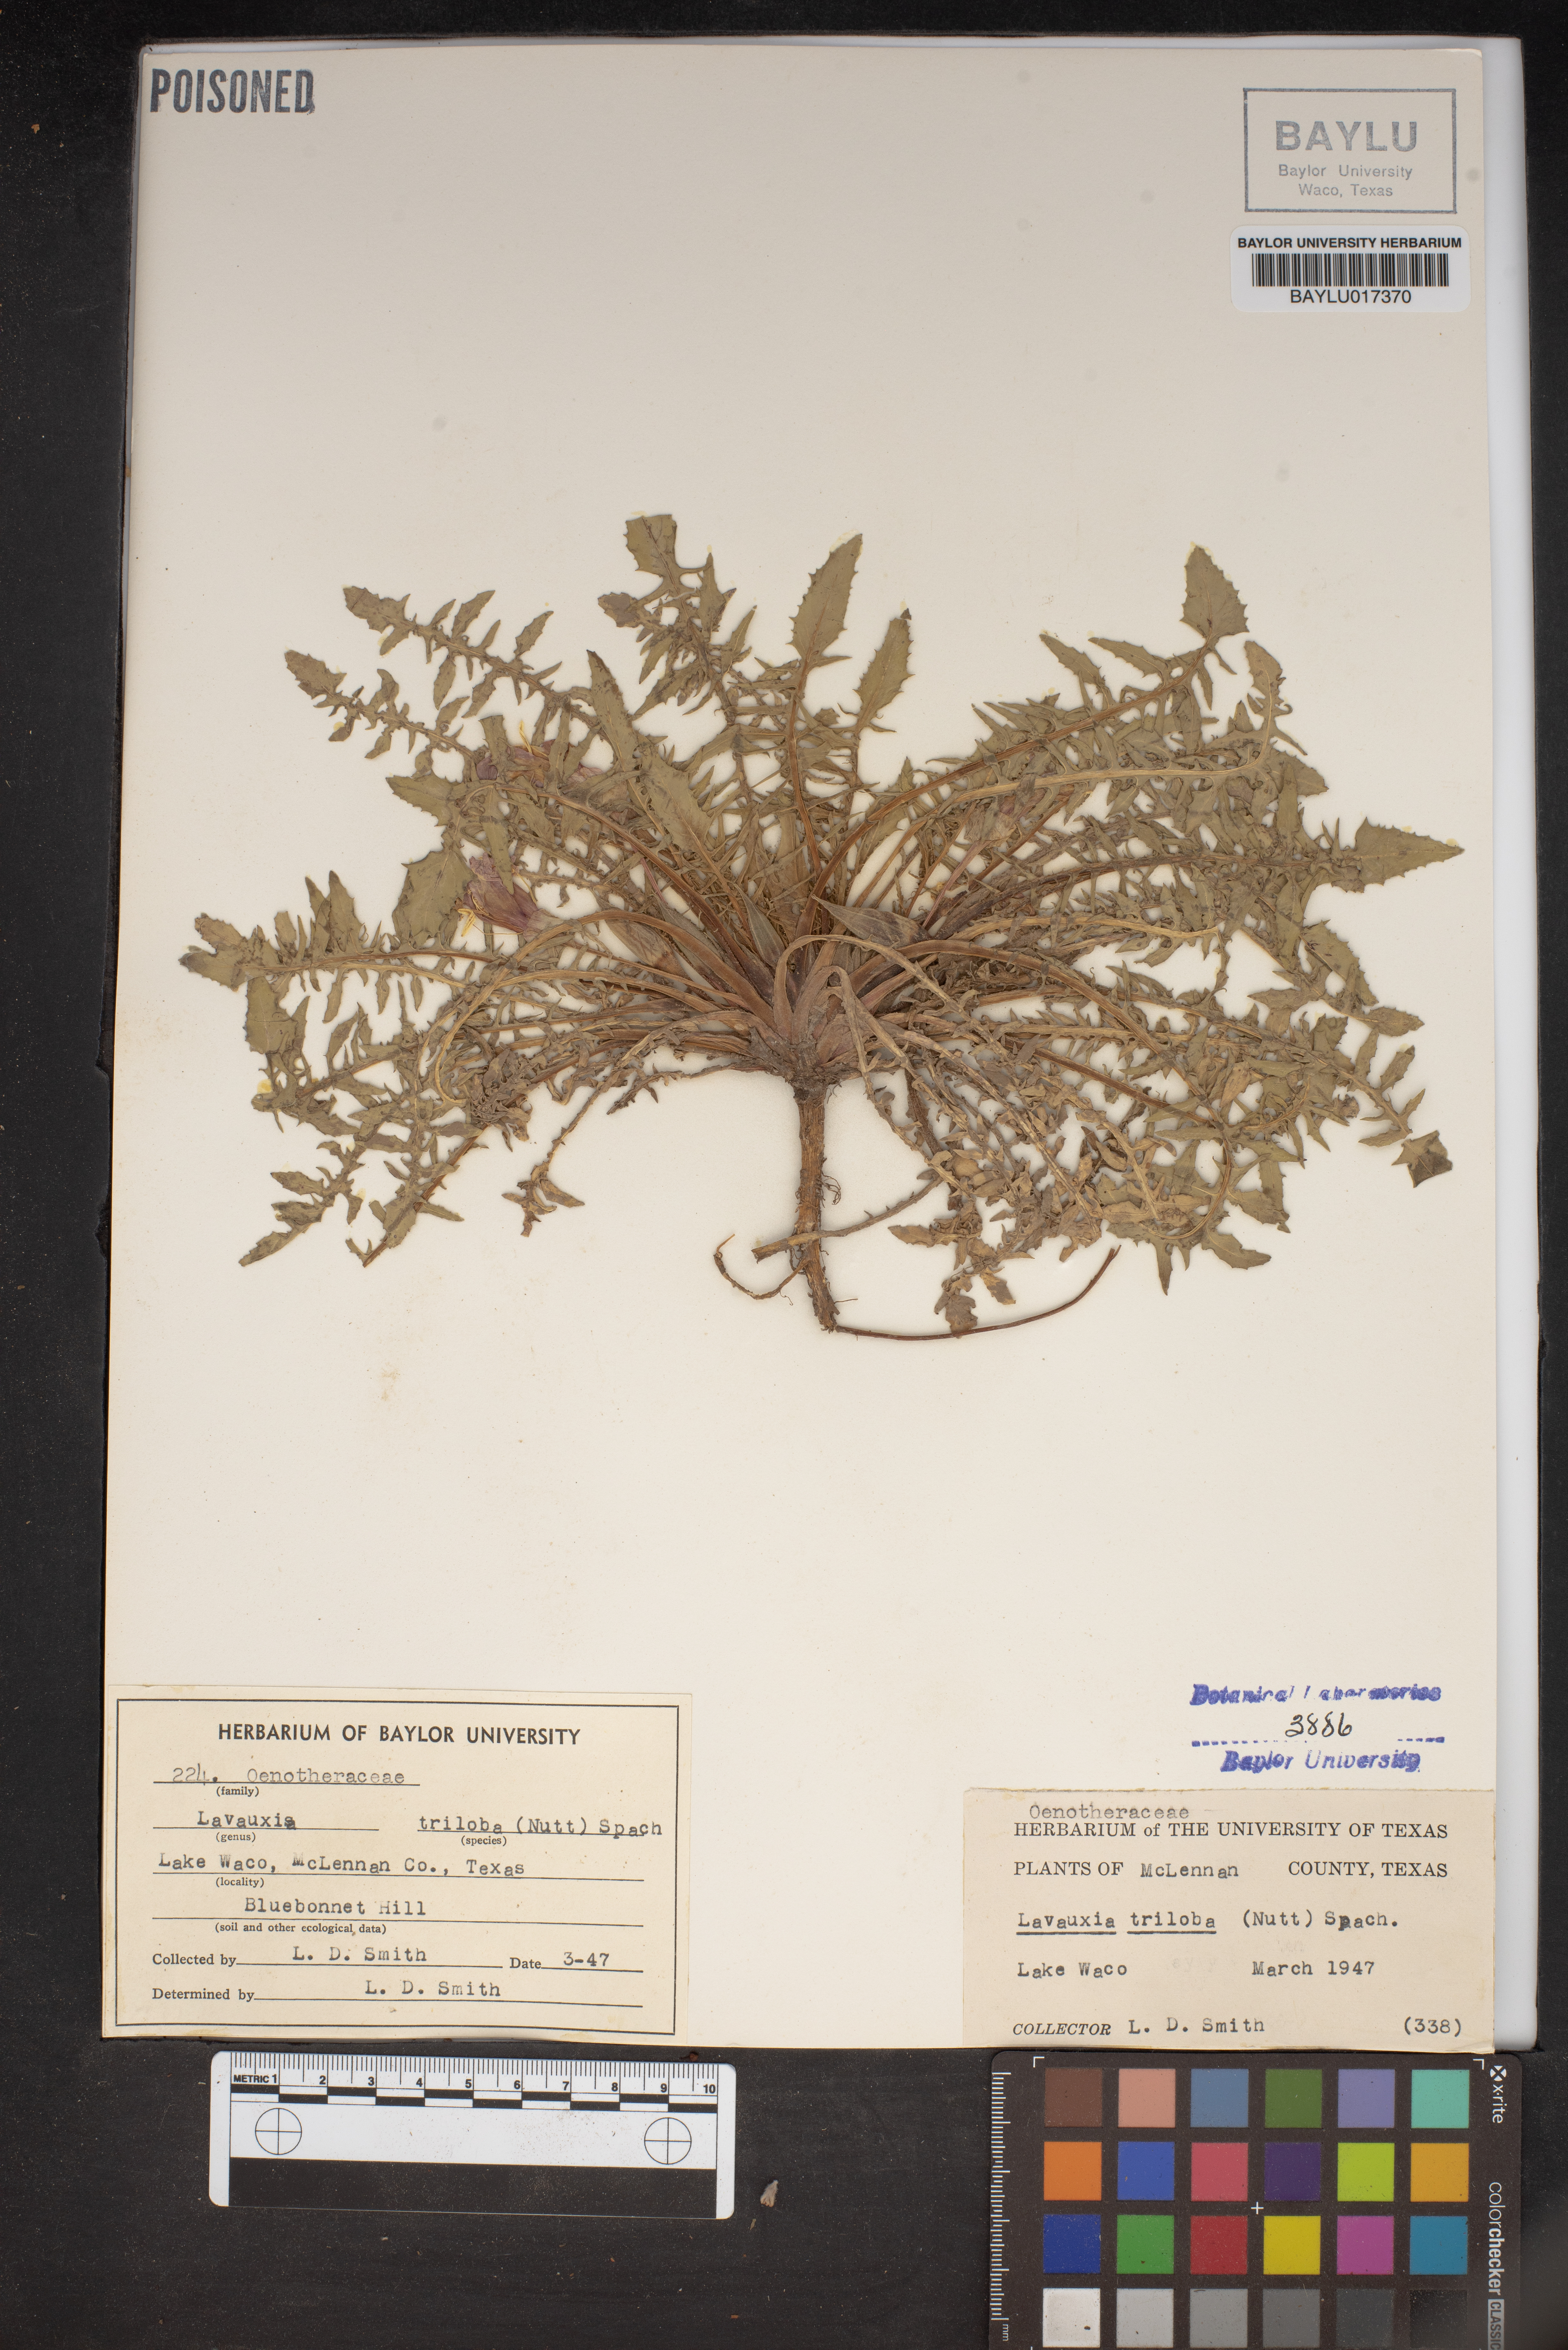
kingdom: Plantae
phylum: Tracheophyta
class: Magnoliopsida
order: Myrtales
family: Onagraceae
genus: Oenothera
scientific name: Oenothera triloba
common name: Sessile evening-primrose
